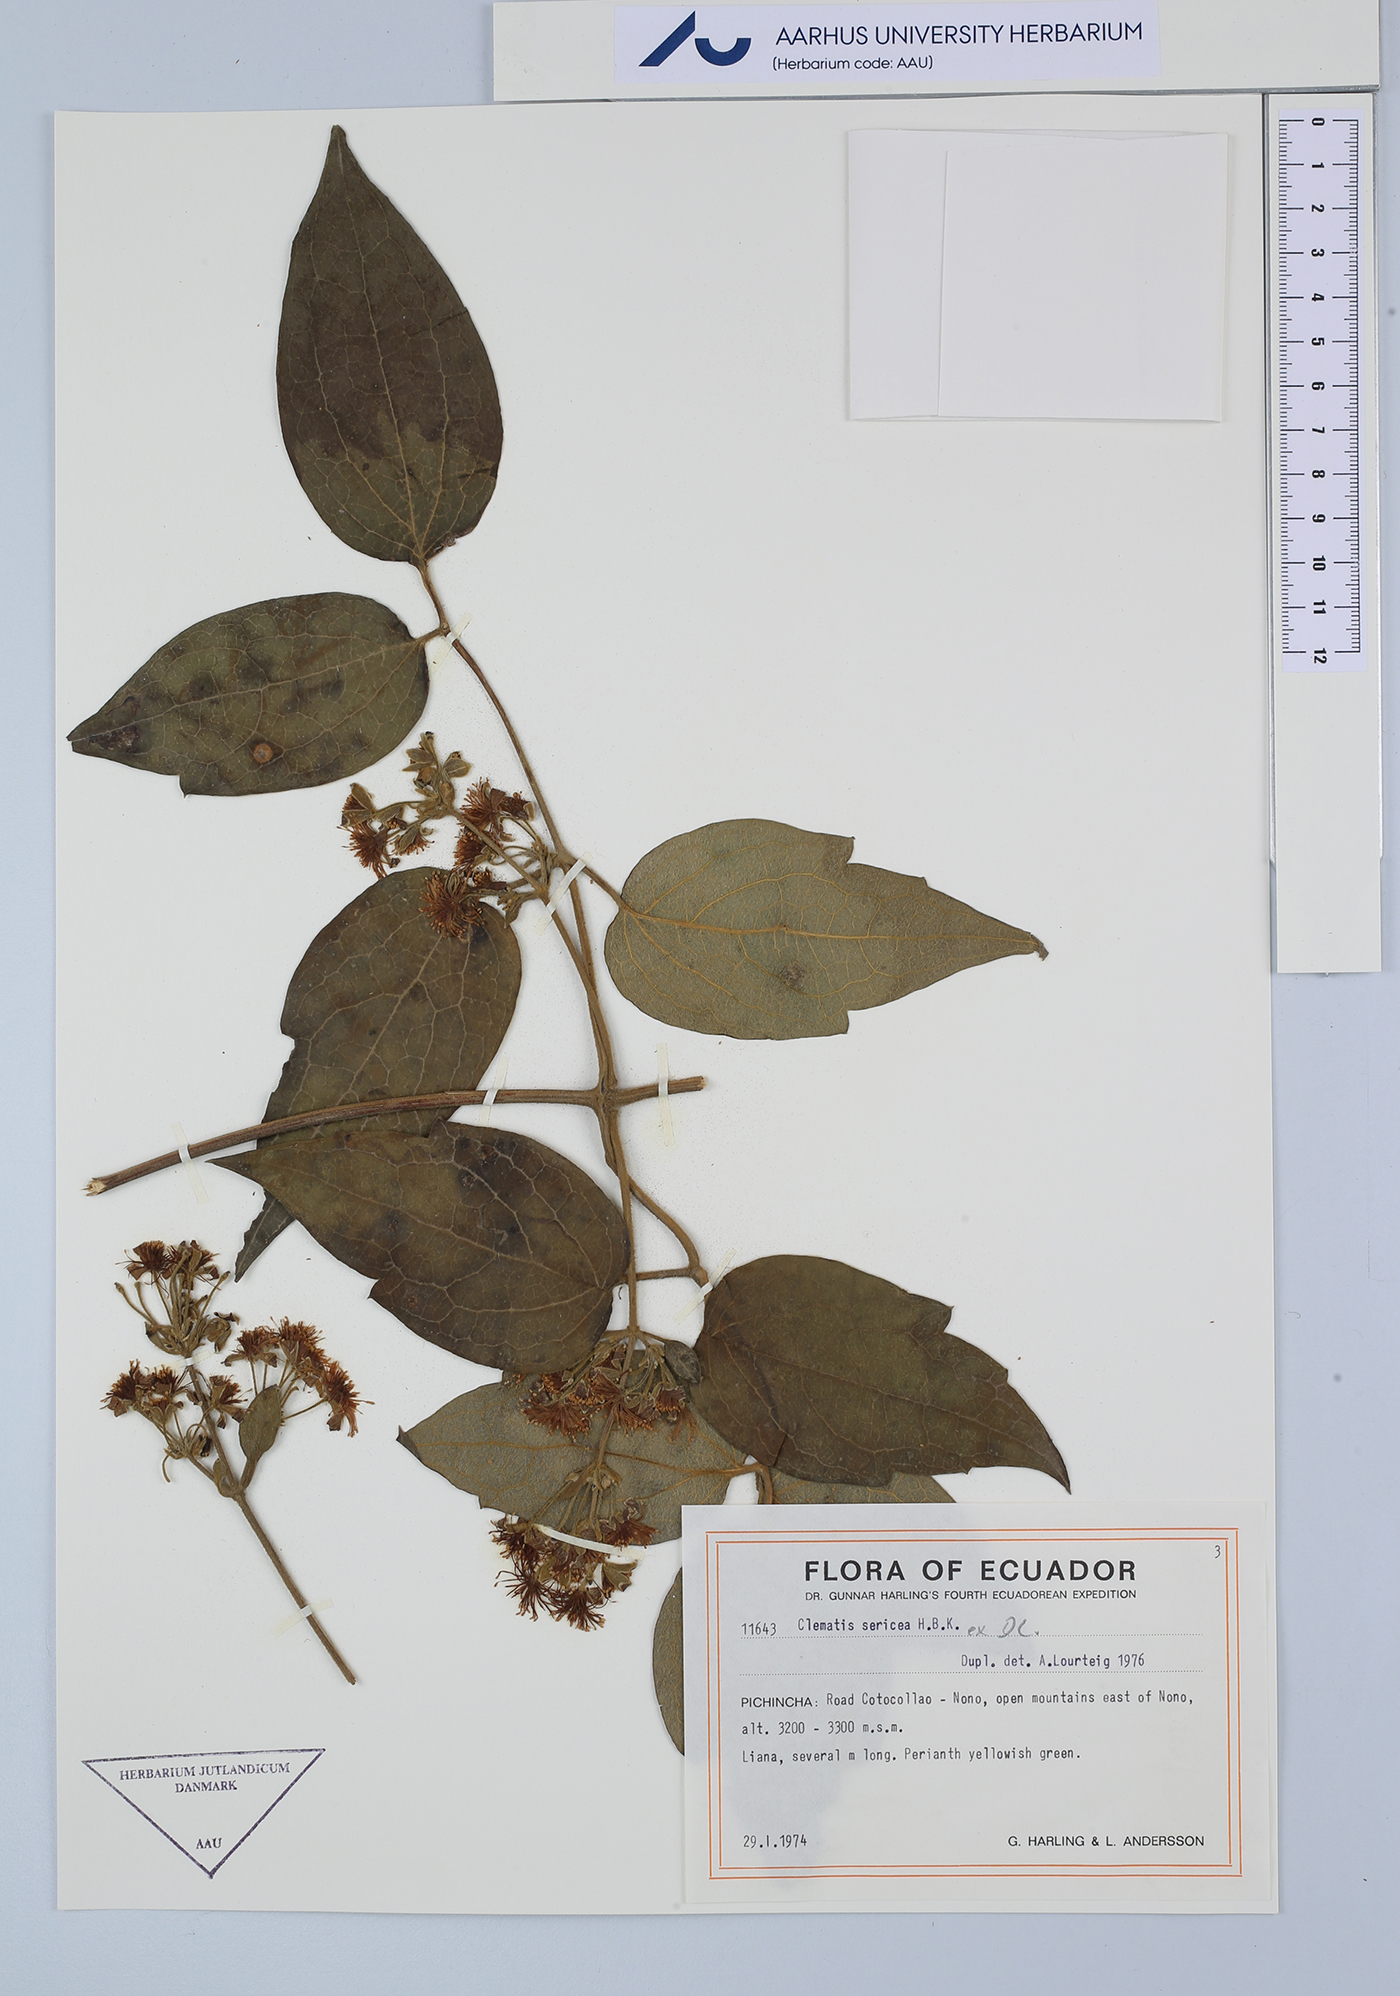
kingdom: Plantae
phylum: Tracheophyta
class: Magnoliopsida
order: Ranunculales
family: Ranunculaceae
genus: Clematis
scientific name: Clematis haenkeana
